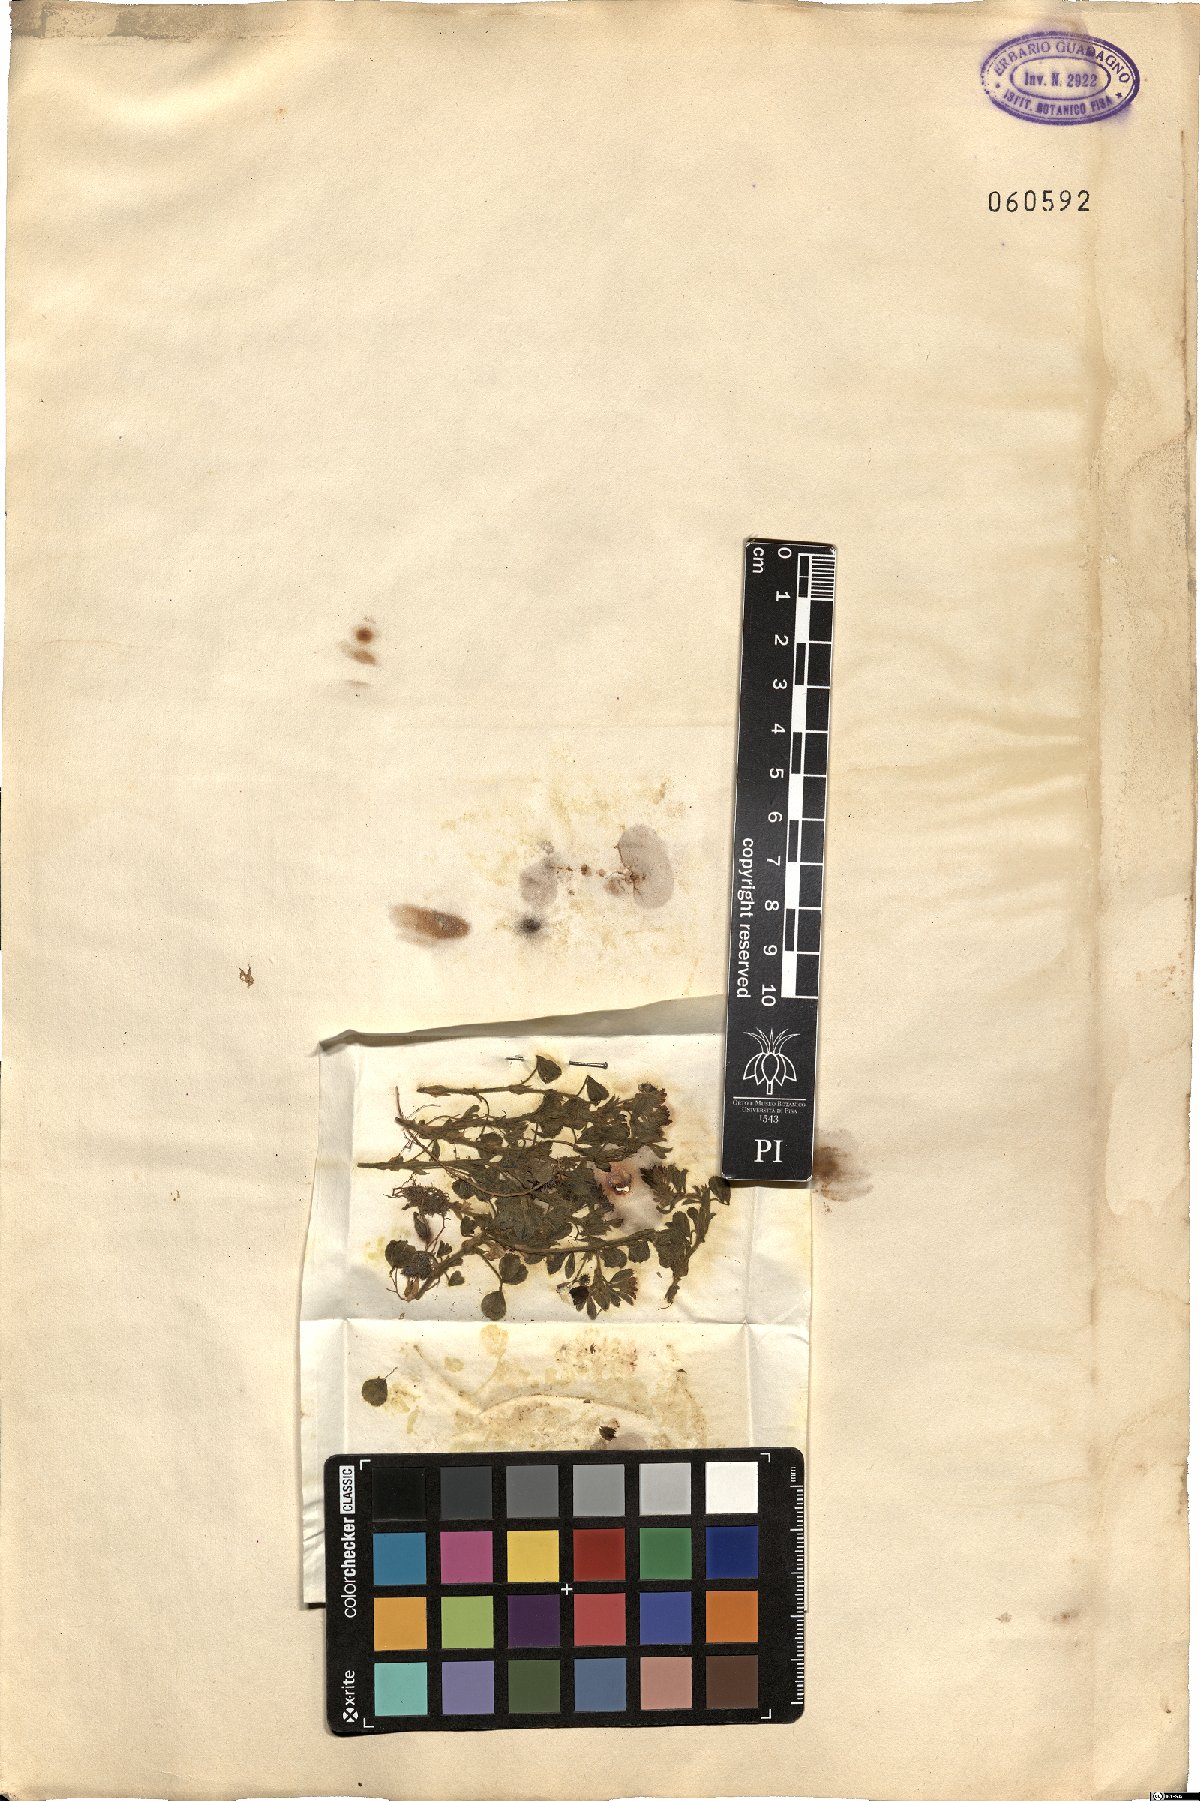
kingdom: Plantae
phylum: Tracheophyta
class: Magnoliopsida
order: Fabales
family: Fabaceae
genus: Medicago
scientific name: Medicago
